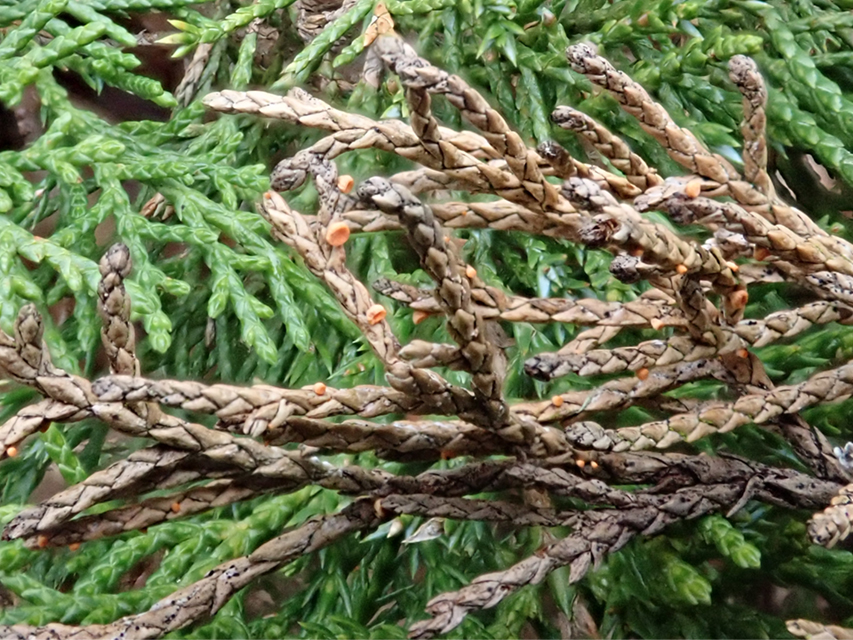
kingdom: Fungi
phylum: Ascomycota
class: Pezizomycetes
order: Pezizales
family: Sarcoscyphaceae
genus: Pithya
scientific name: Pithya cupressina
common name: lille dukatbæger
